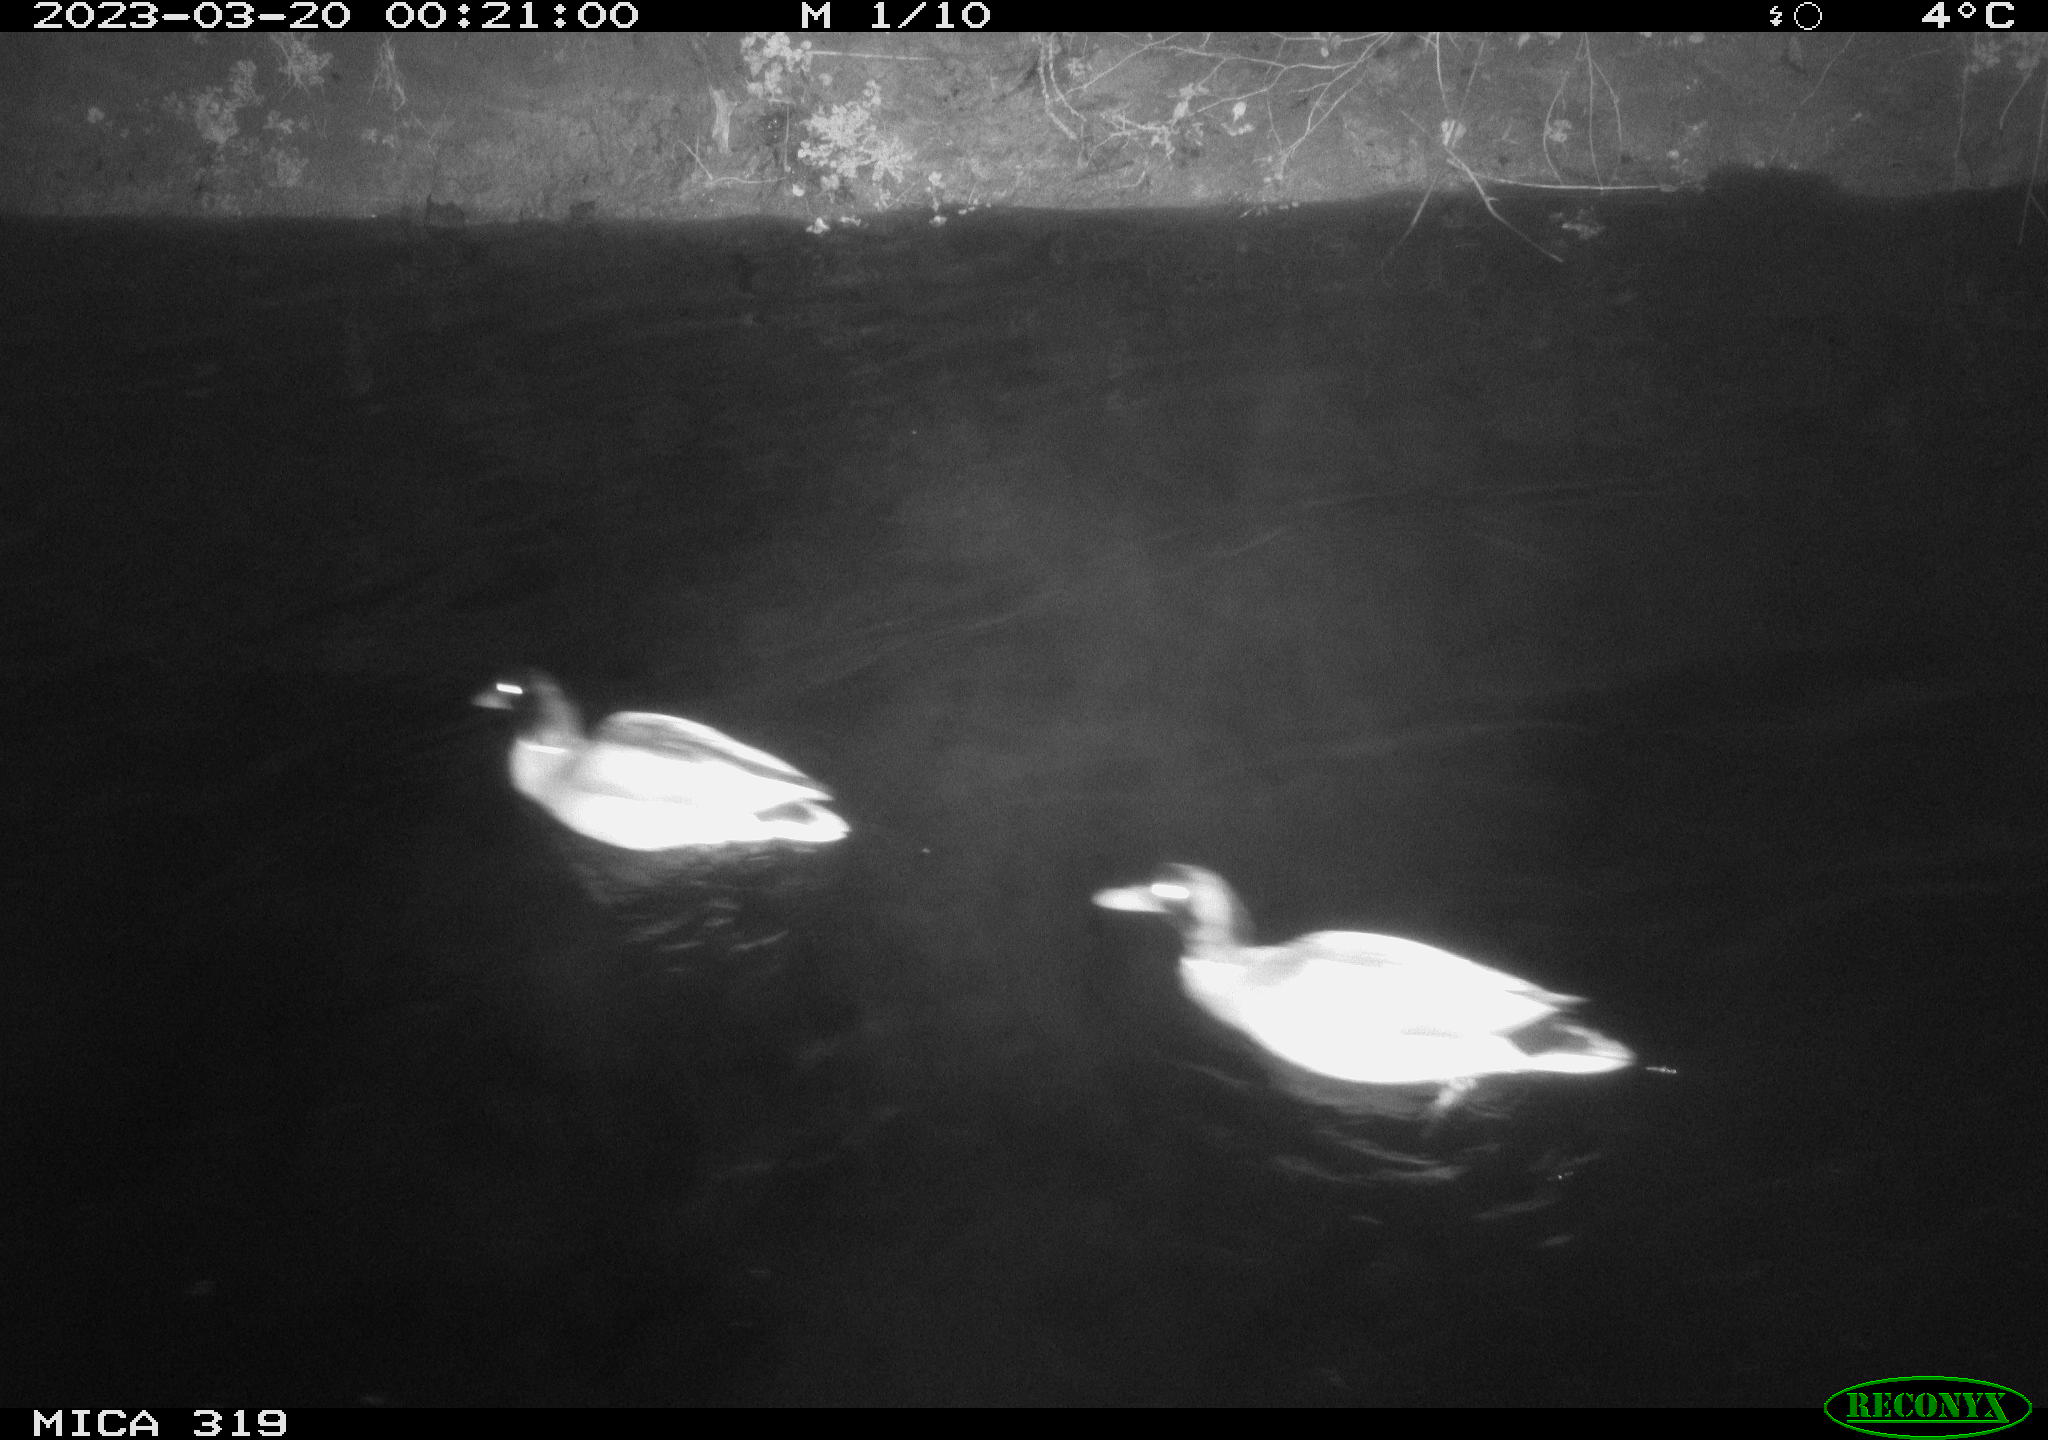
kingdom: Animalia
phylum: Chordata
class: Aves
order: Anseriformes
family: Anatidae
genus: Anas
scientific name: Anas
